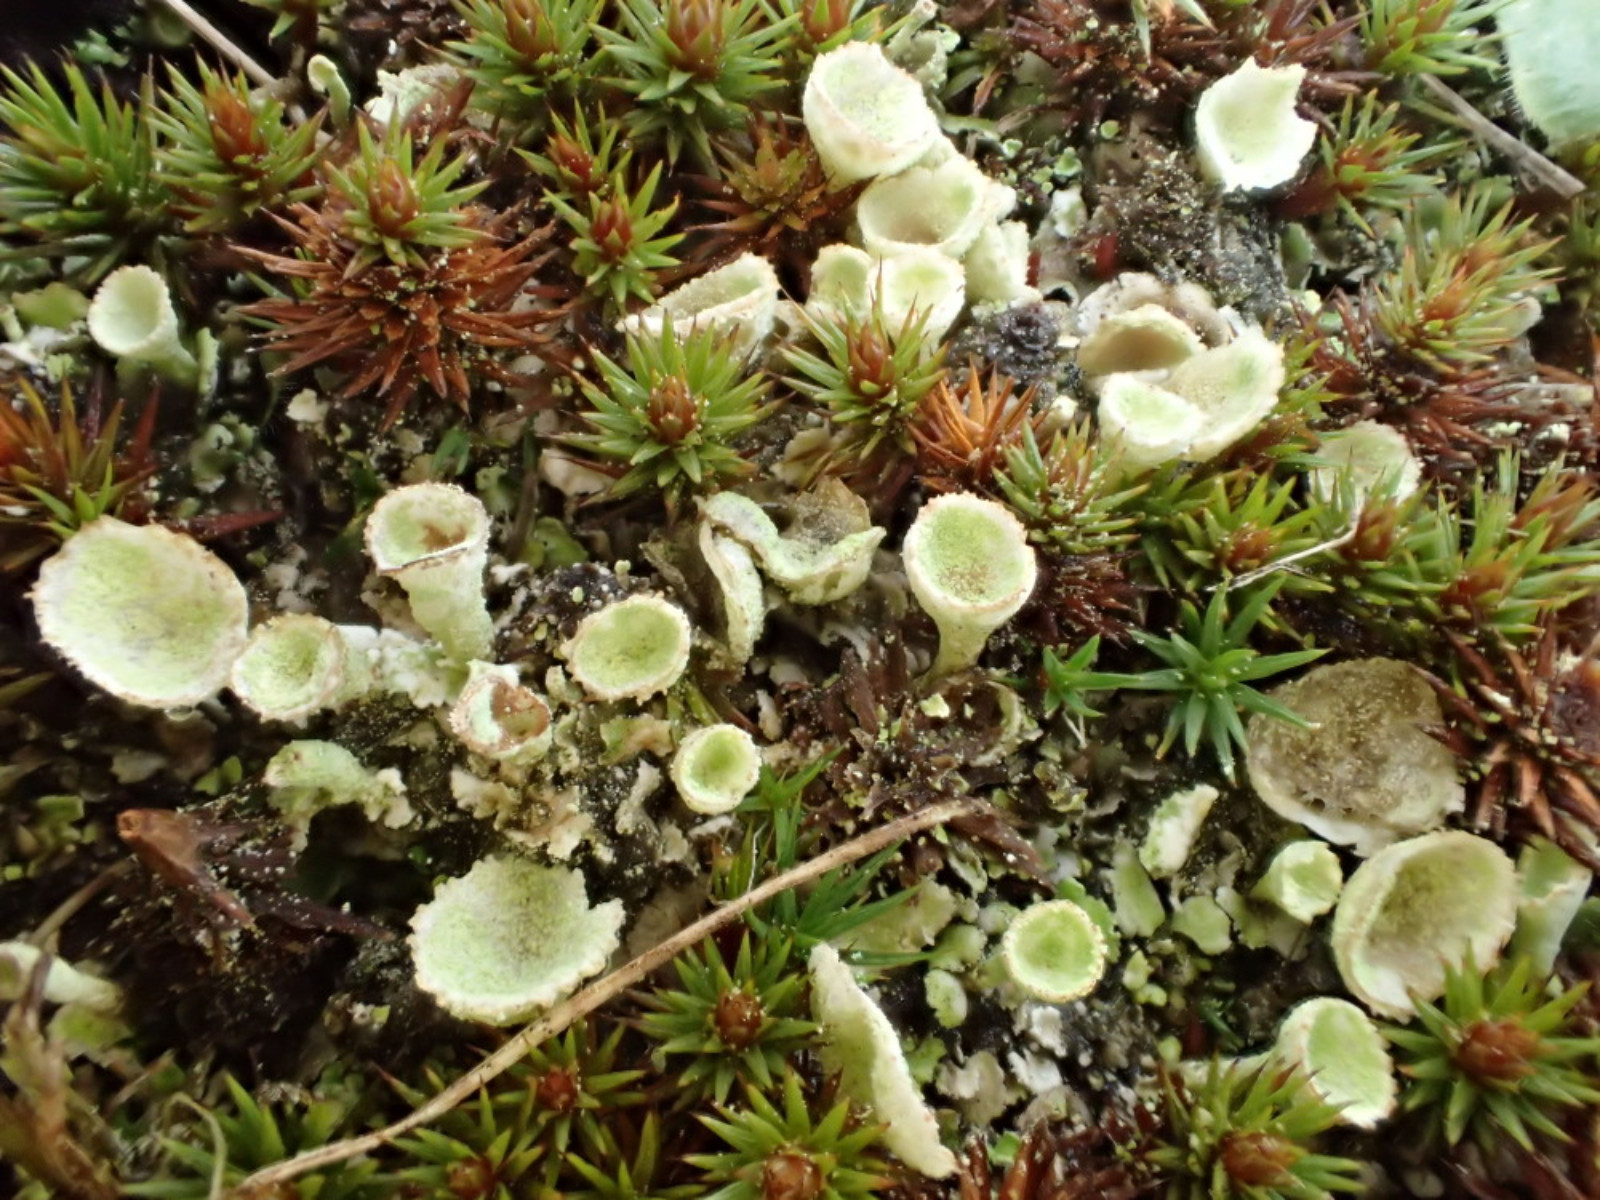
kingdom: Fungi
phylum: Ascomycota
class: Lecanoromycetes
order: Lecanorales
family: Cladoniaceae
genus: Cladonia
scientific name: Cladonia humilis
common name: lav bægerlav
